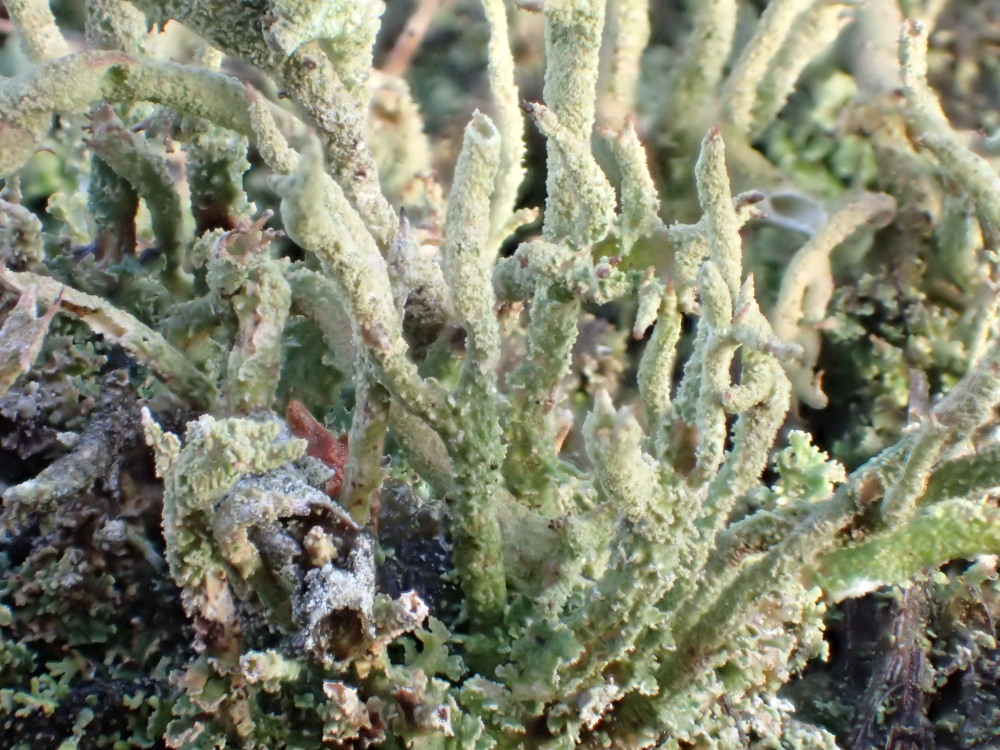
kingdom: Fungi
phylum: Ascomycota
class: Lecanoromycetes
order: Lecanorales
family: Cladoniaceae
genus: Cladonia
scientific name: Cladonia glauca
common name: grågrøn bægerlav
